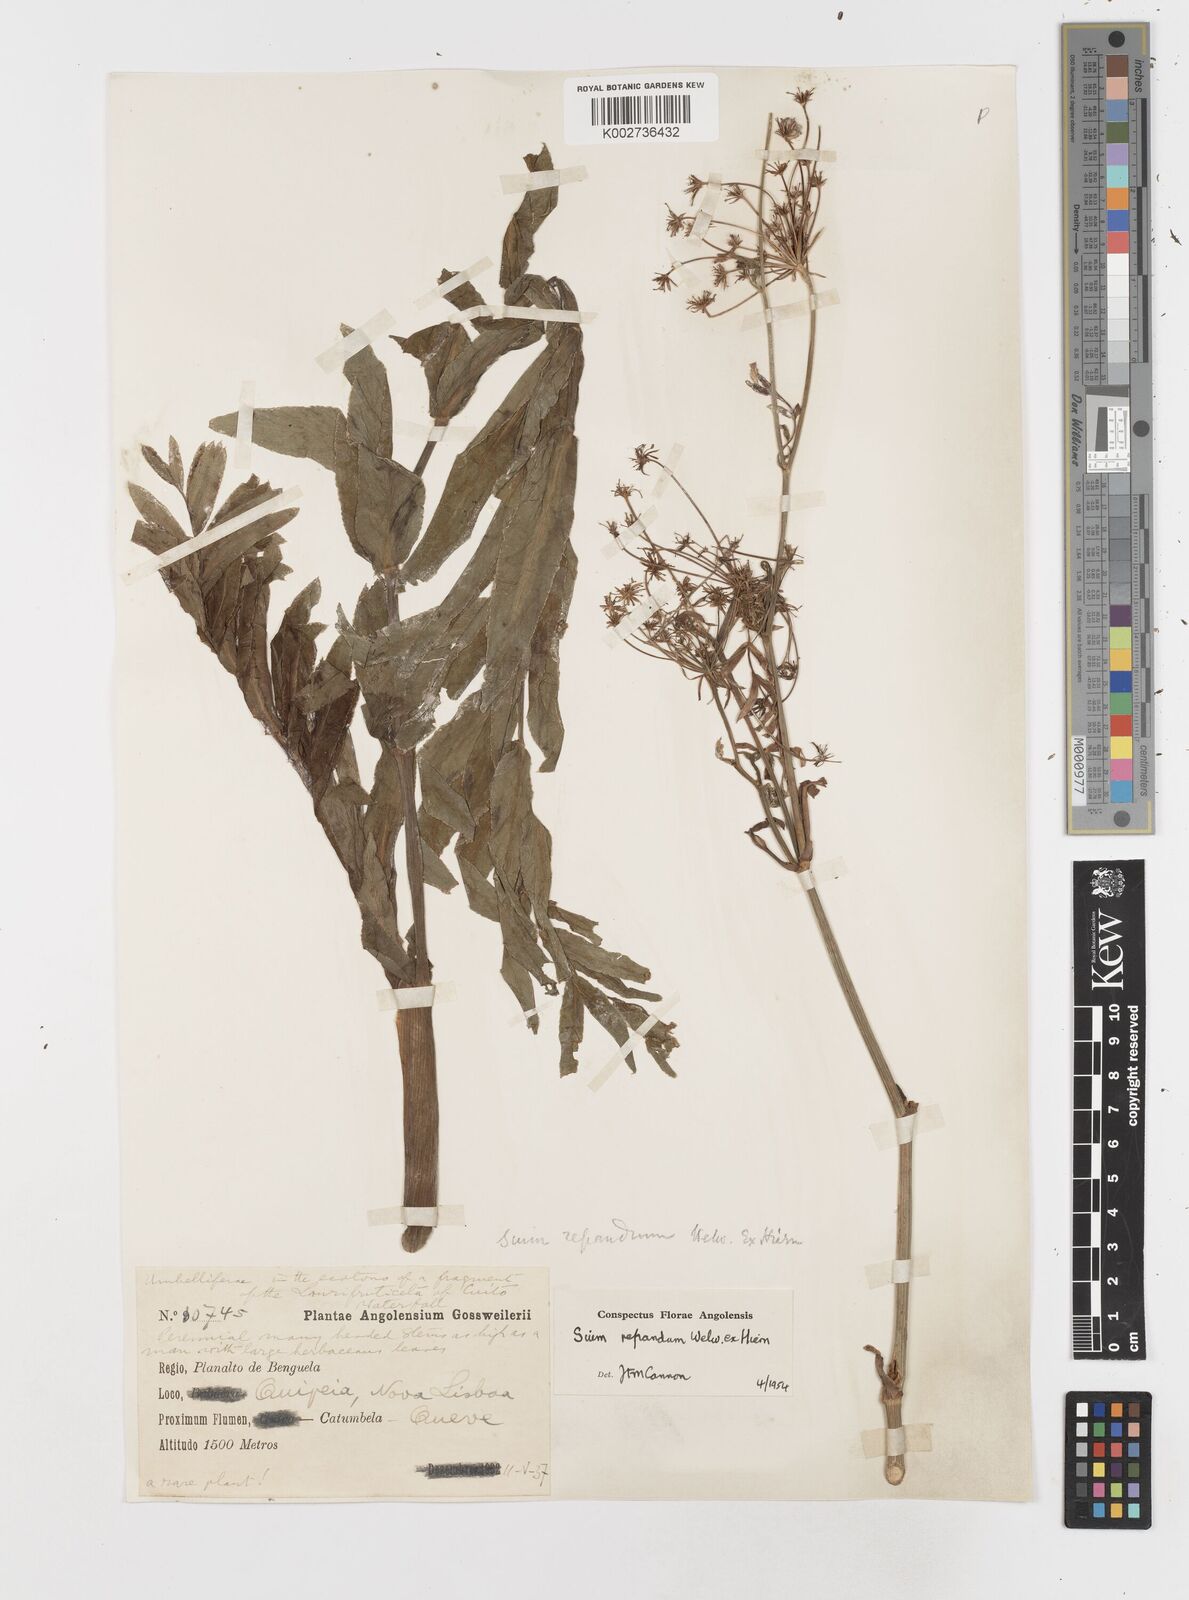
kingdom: Plantae
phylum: Tracheophyta
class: Magnoliopsida
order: Apiales
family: Apiaceae
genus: Berula
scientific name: Berula repanda
